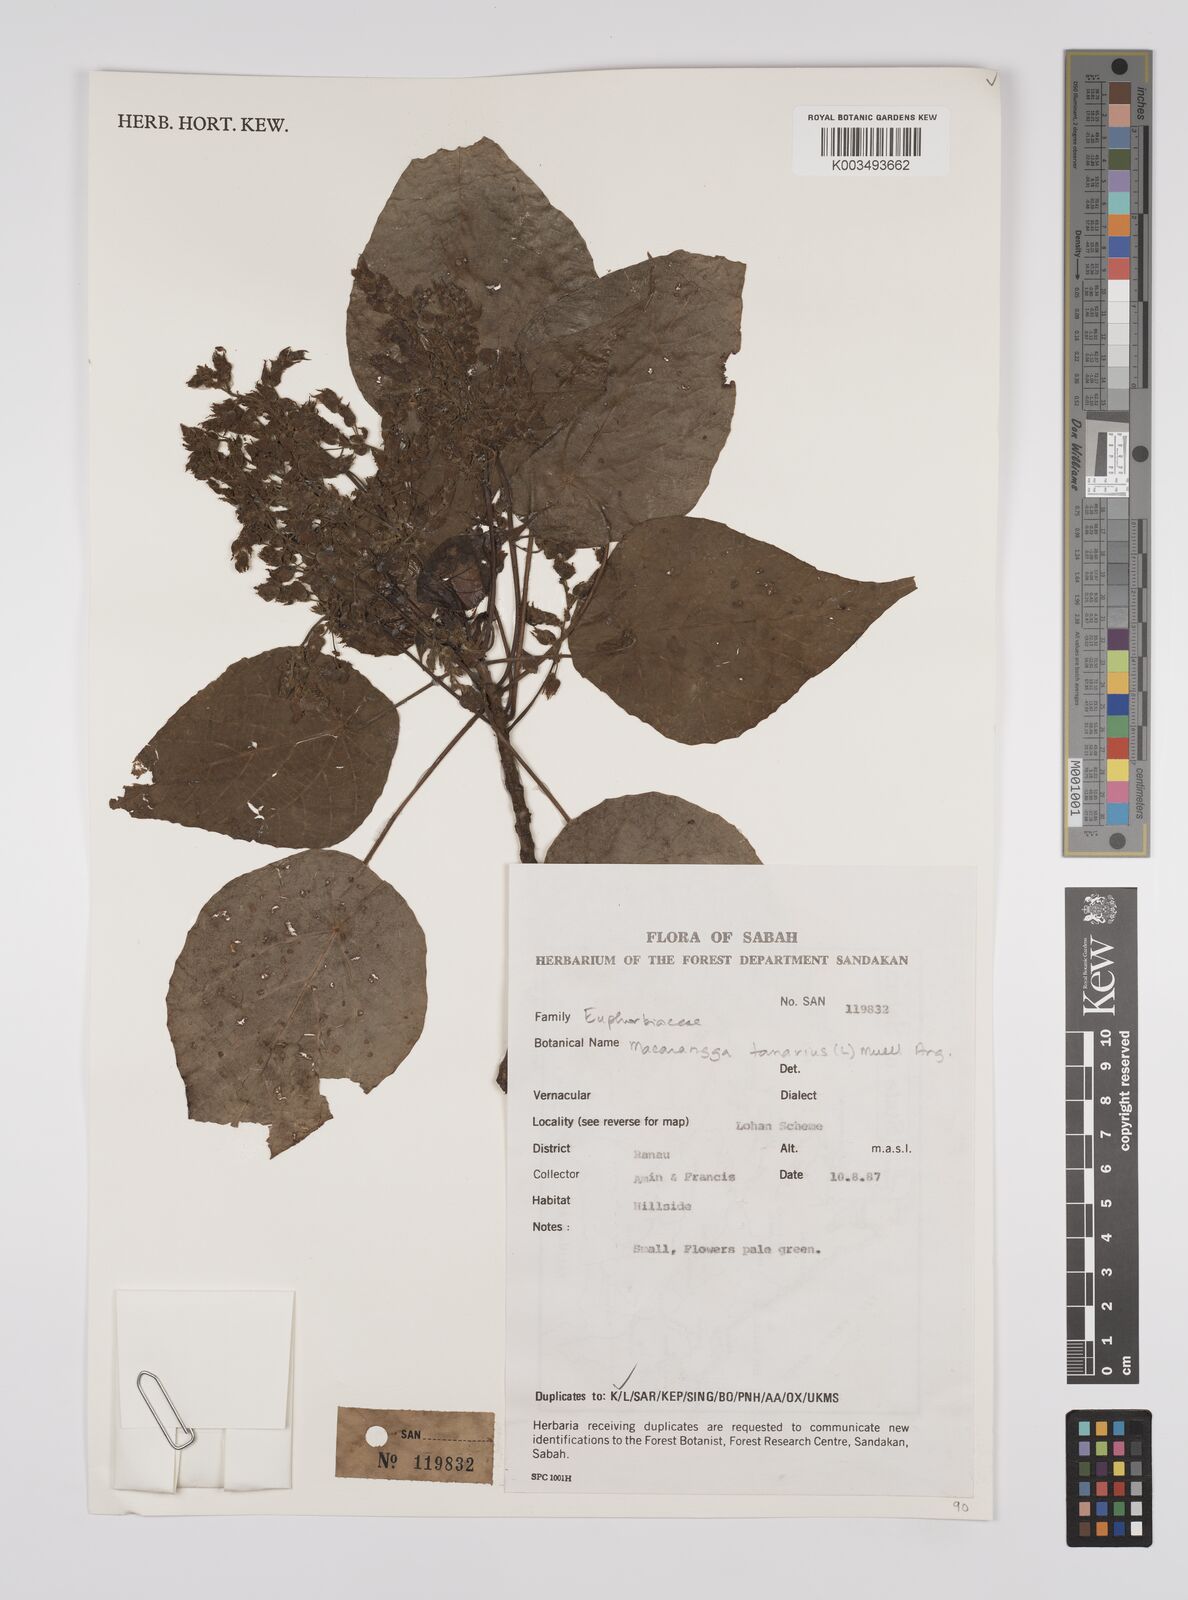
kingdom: Plantae
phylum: Tracheophyta
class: Magnoliopsida
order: Malpighiales
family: Euphorbiaceae
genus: Macaranga
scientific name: Macaranga tanarius
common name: Parasol leaf tree
